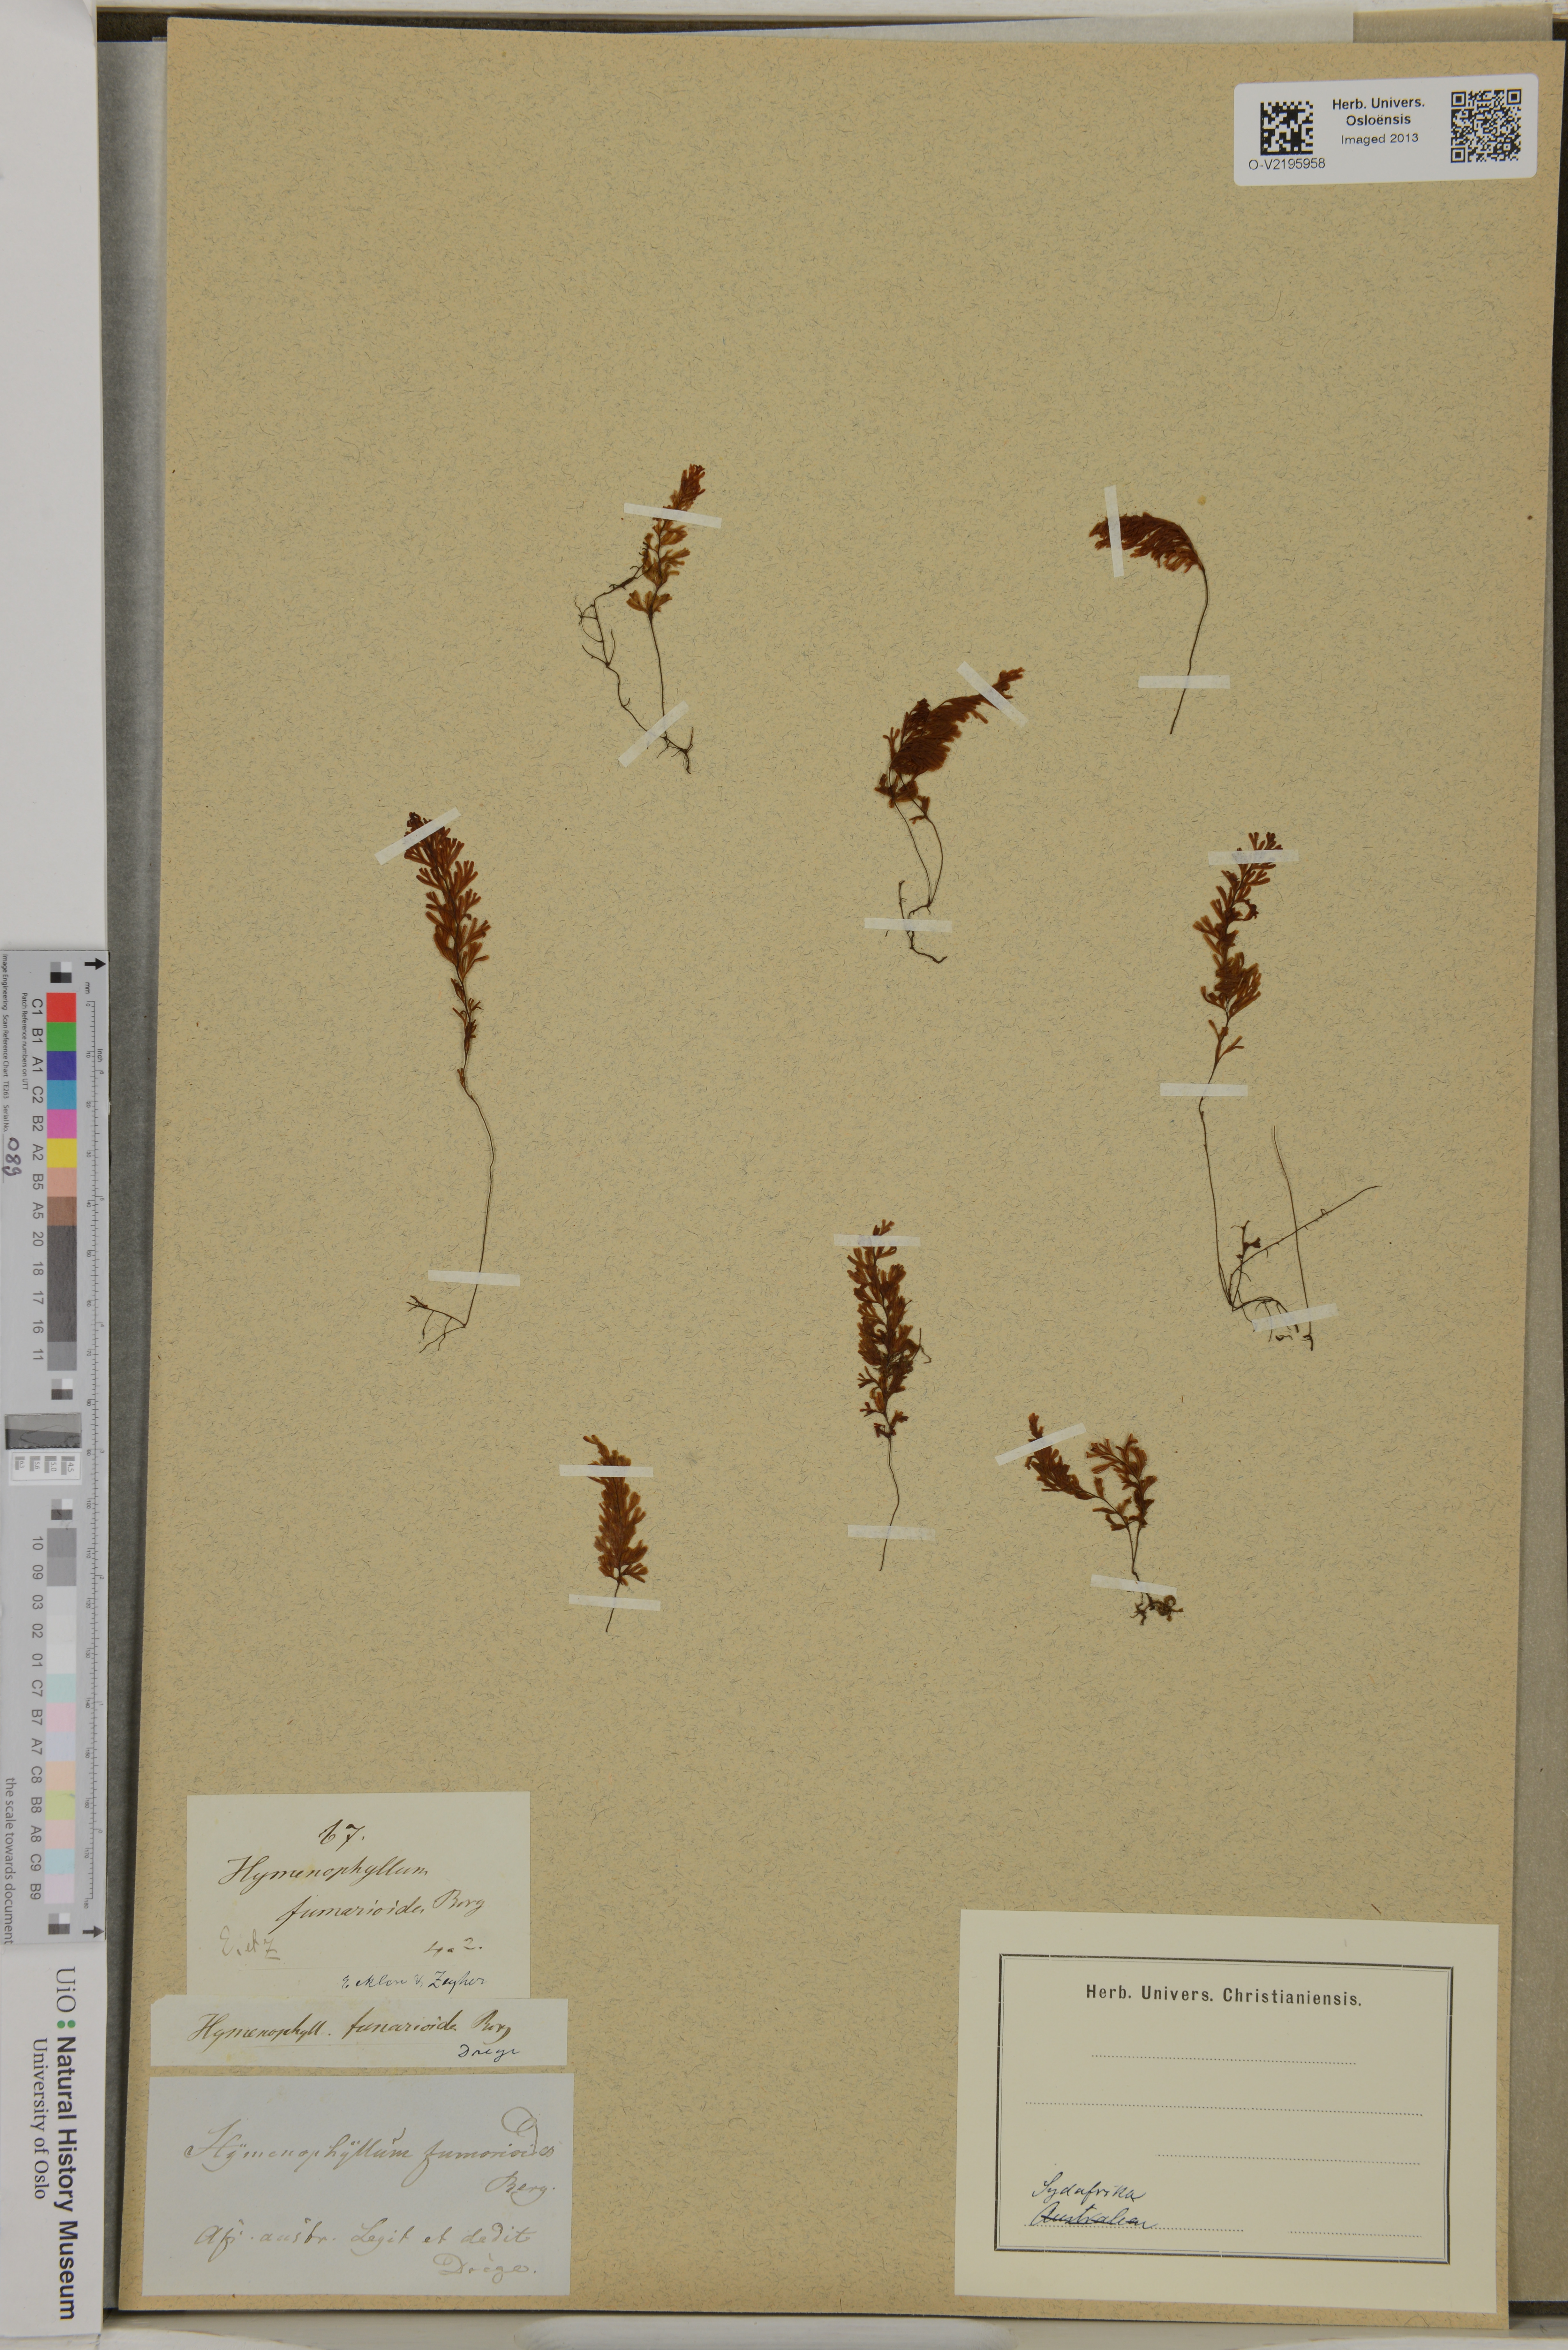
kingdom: Plantae
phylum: Tracheophyta
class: Polypodiopsida
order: Hymenophyllales
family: Hymenophyllaceae
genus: Hymenophyllum
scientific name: Hymenophyllum fumarioides
